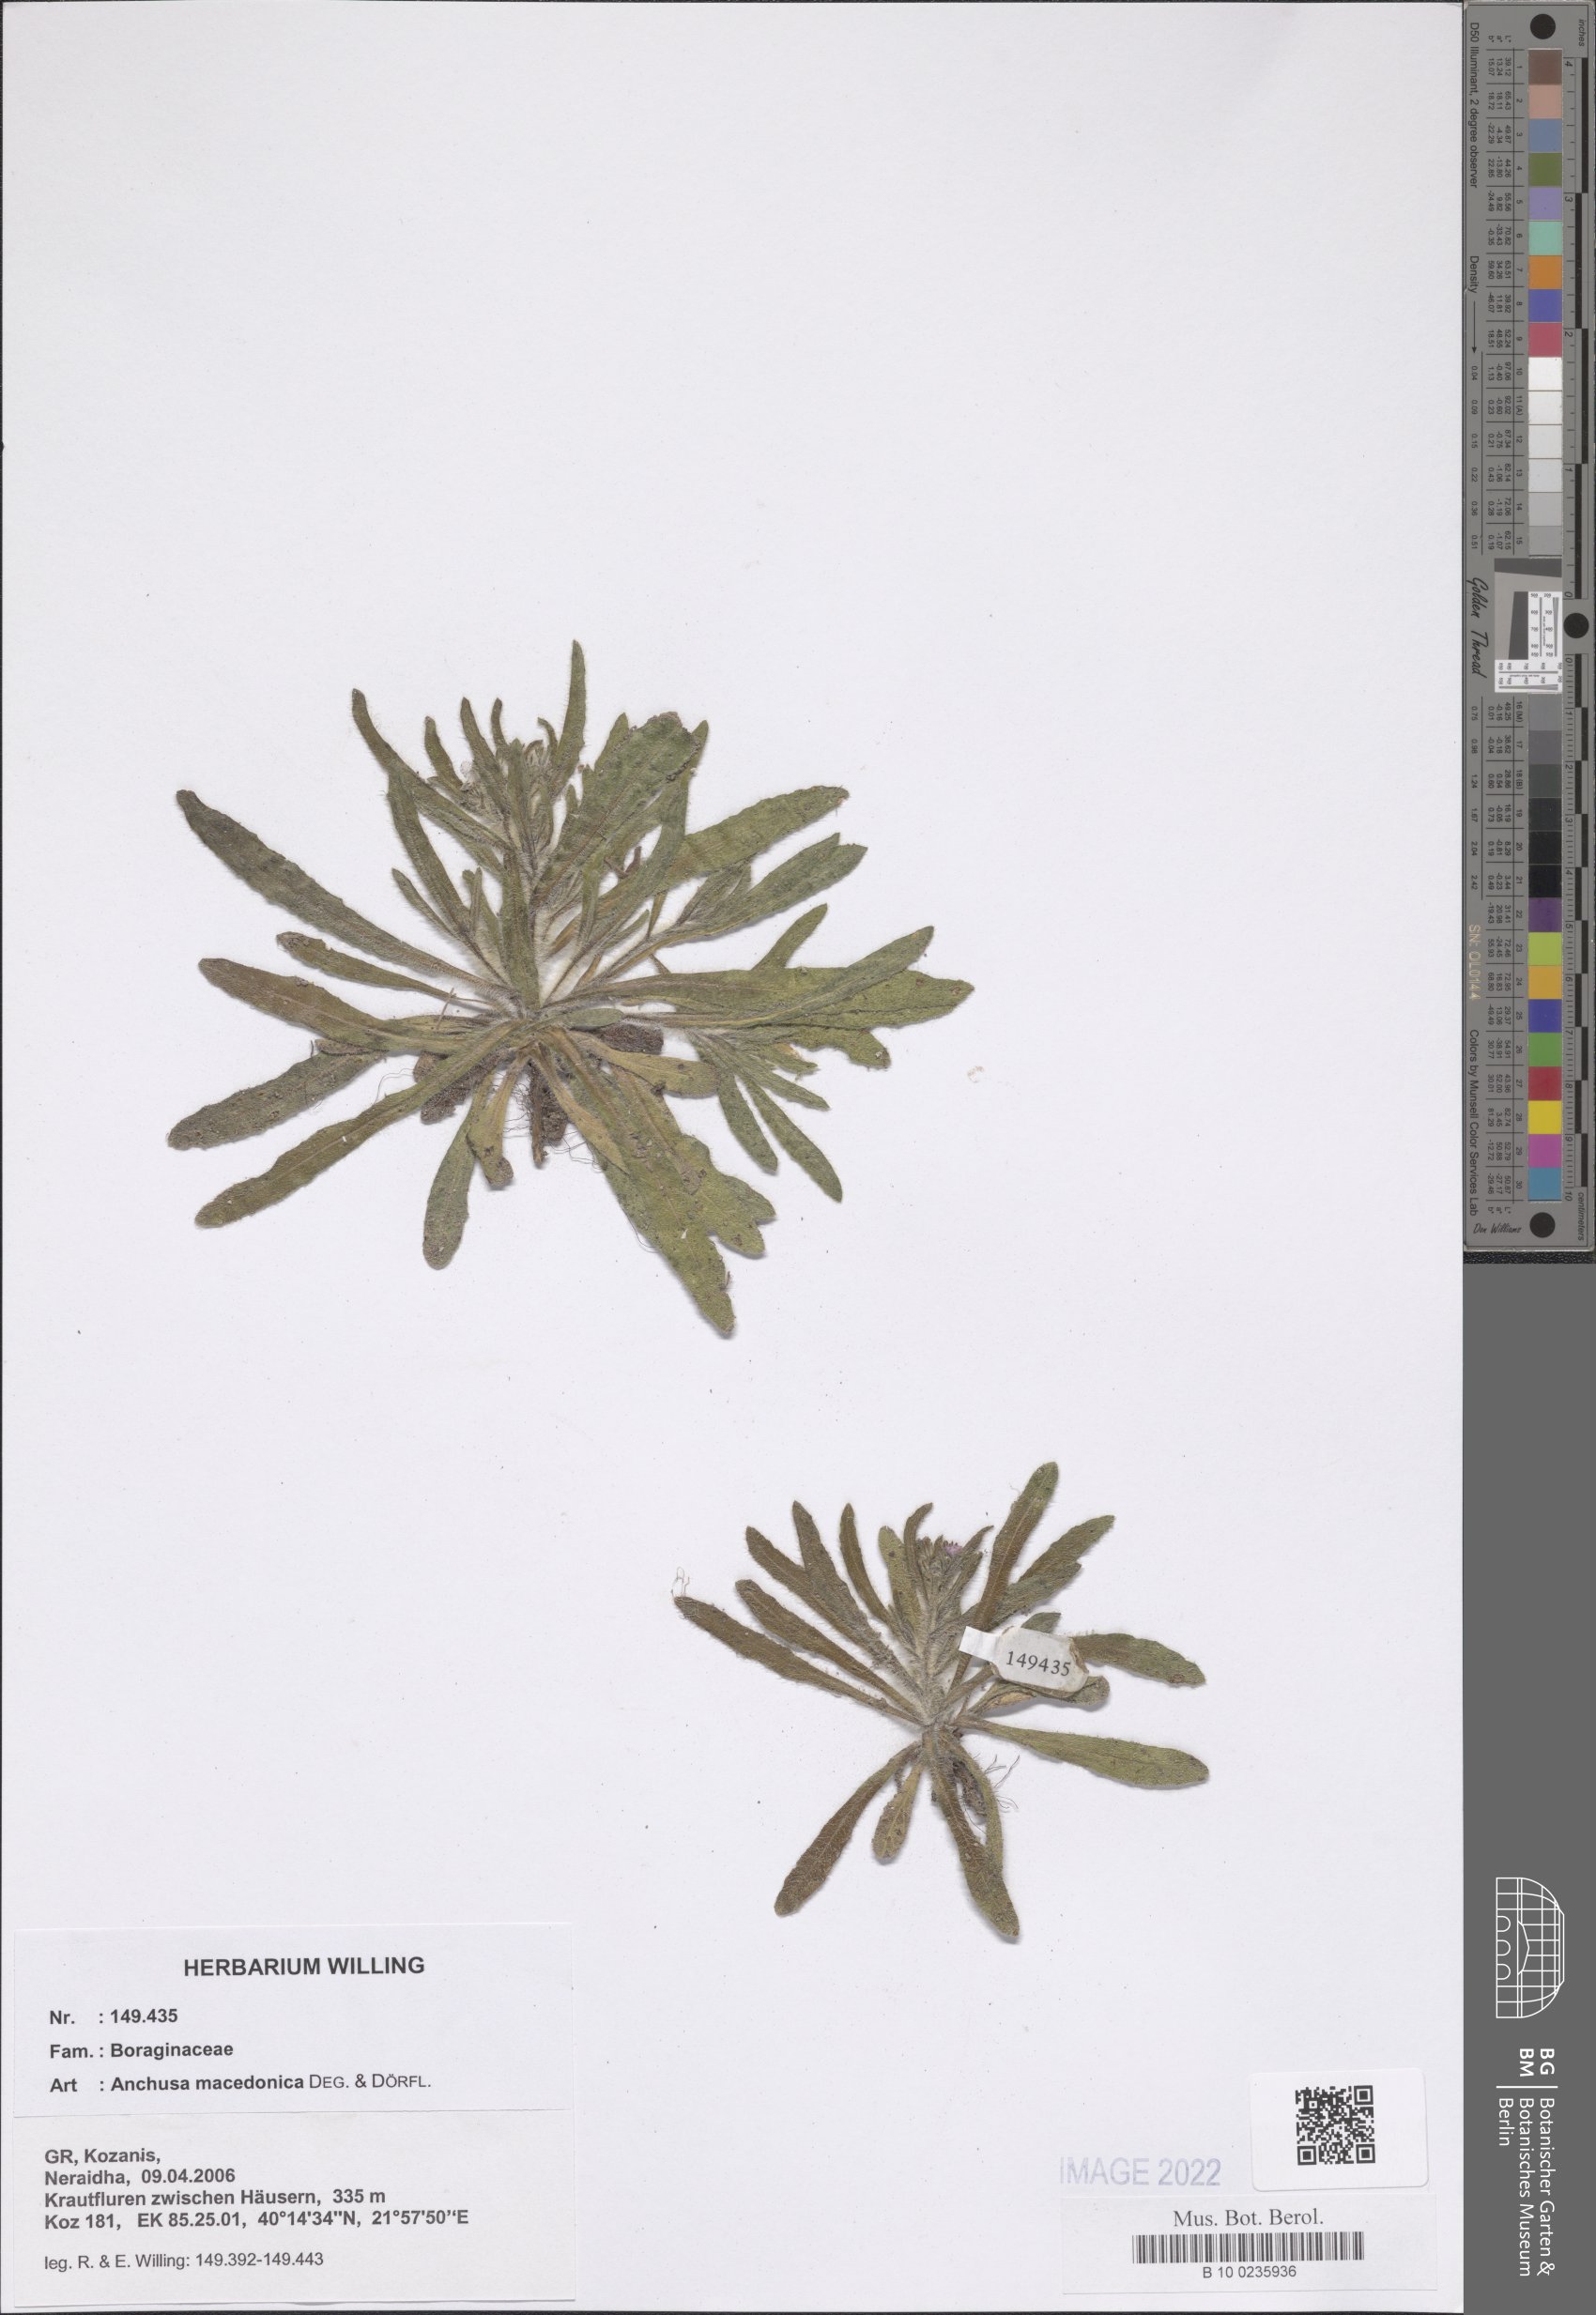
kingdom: Plantae
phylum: Tracheophyta
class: Magnoliopsida
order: Boraginales
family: Boraginaceae
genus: Anchusa
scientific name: Anchusa officinalis
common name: Alkanet
